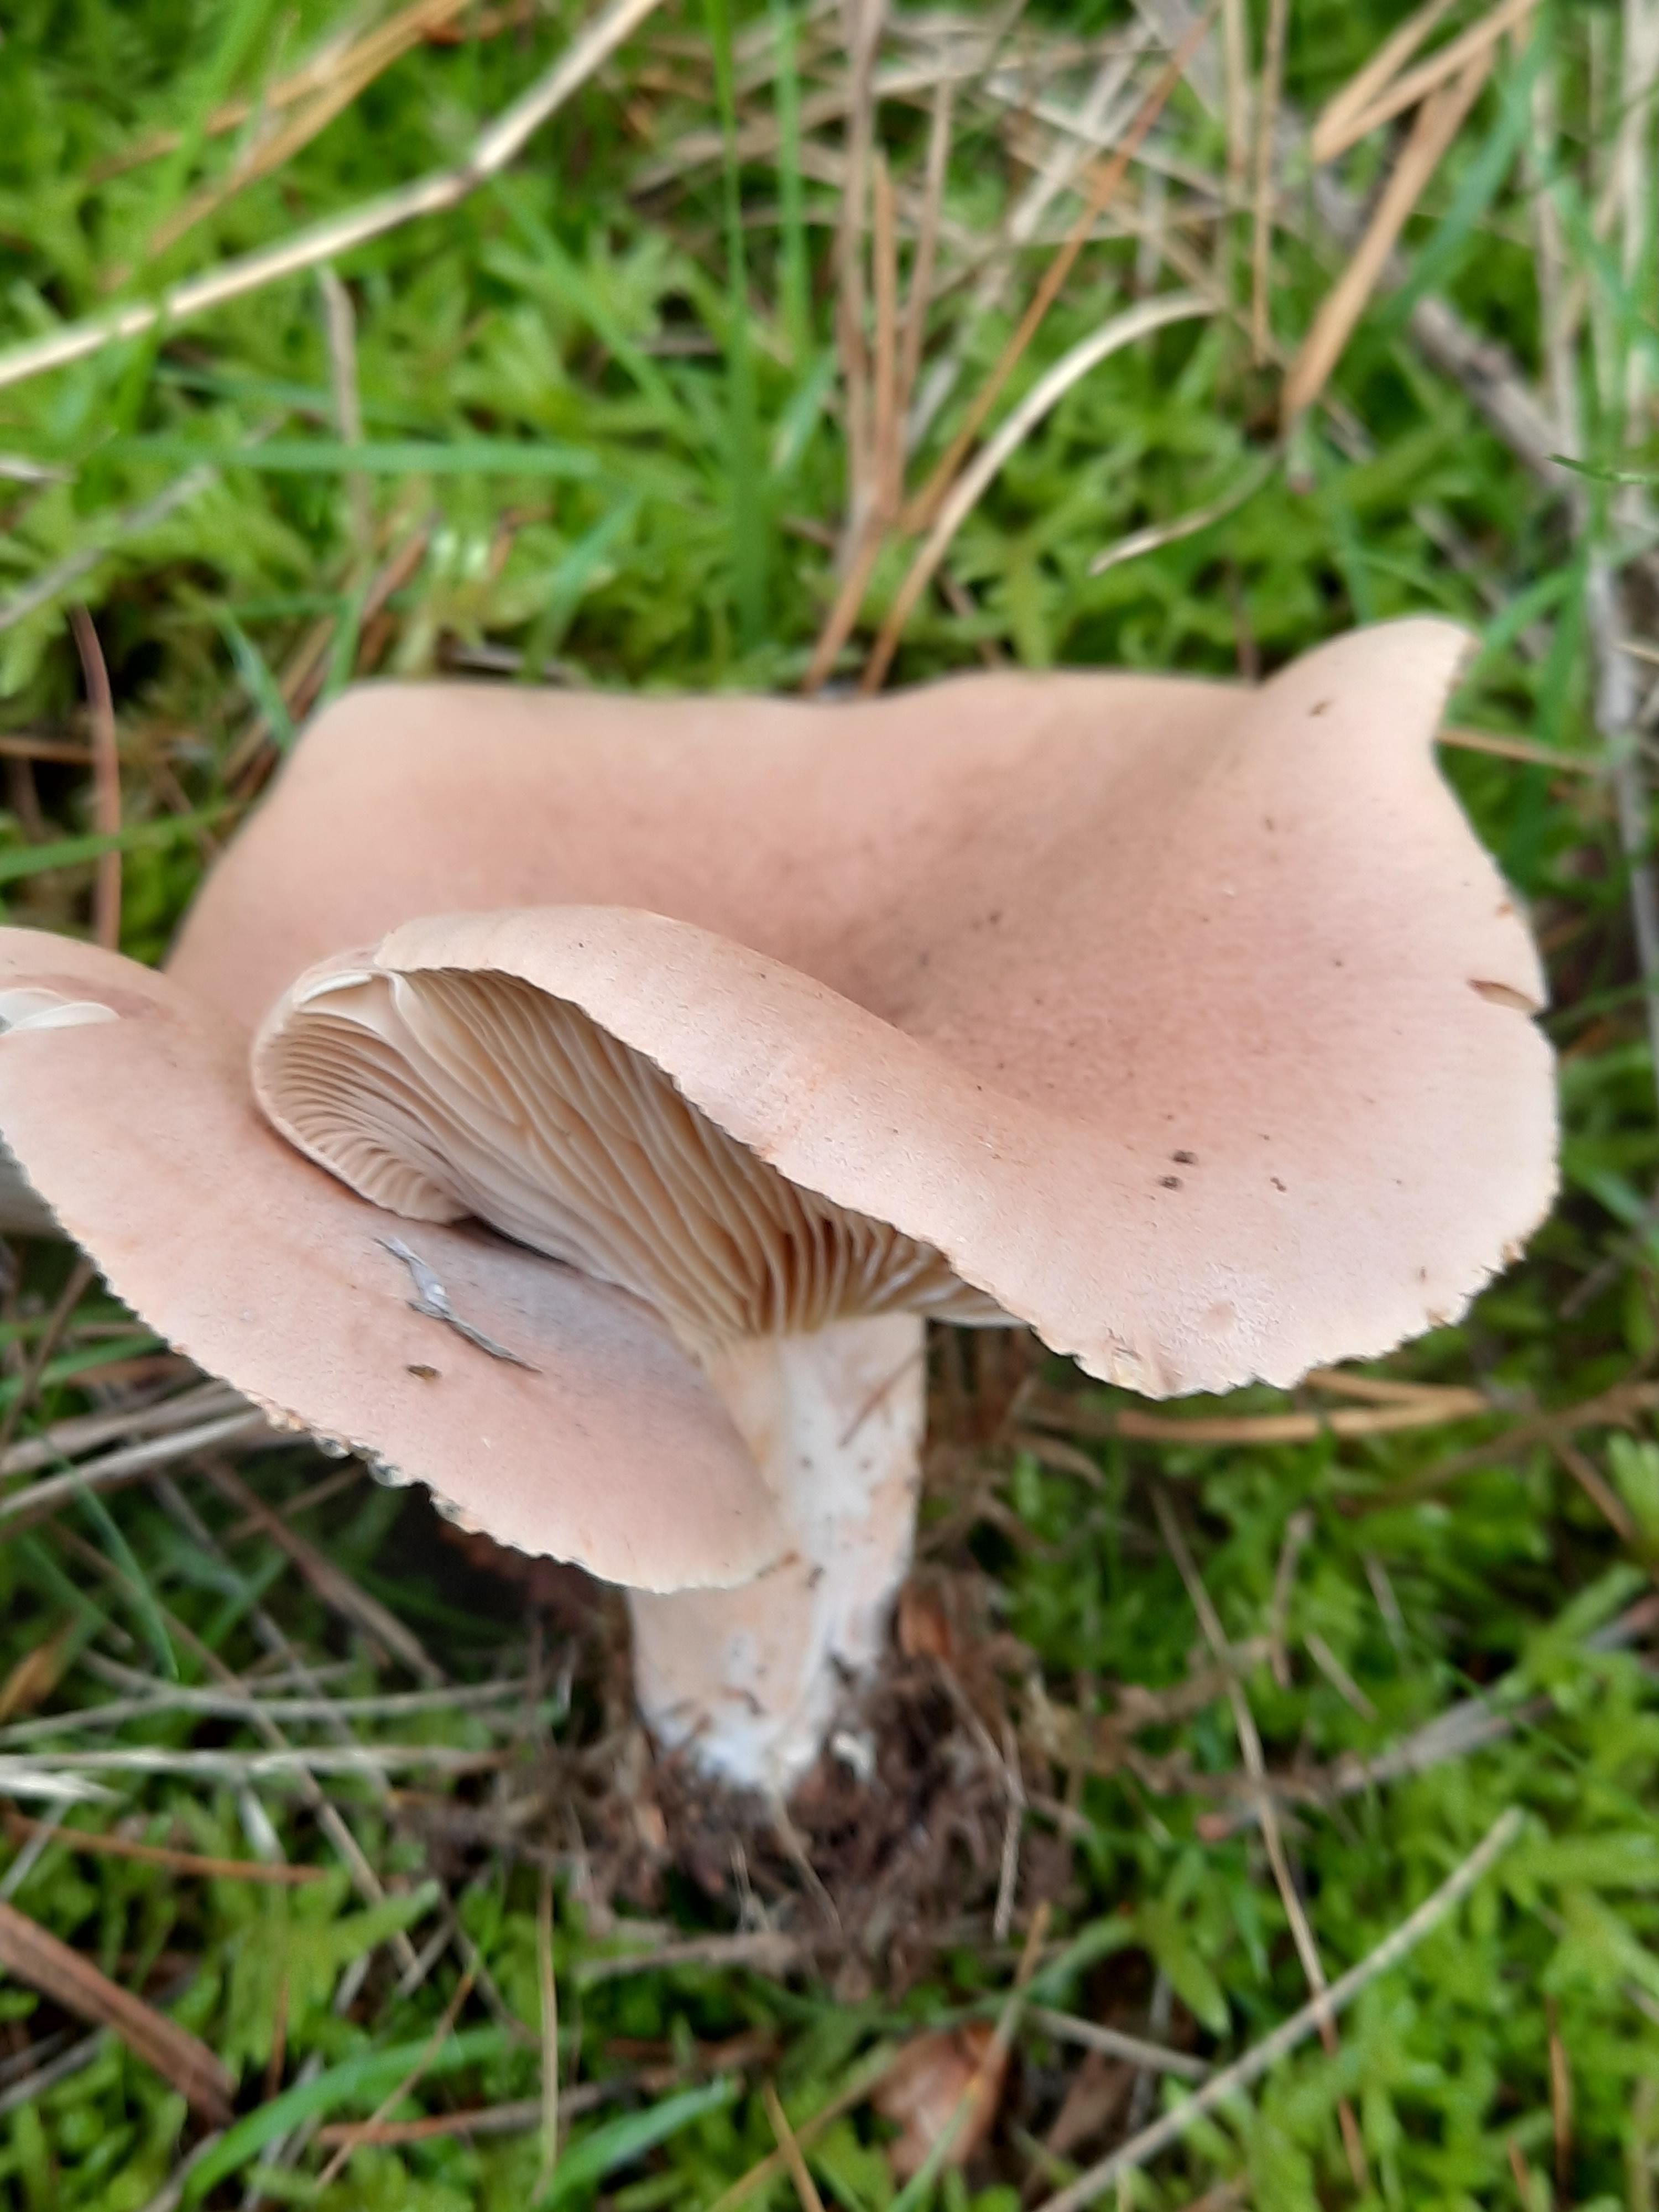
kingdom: Fungi
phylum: Basidiomycota
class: Agaricomycetes
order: Russulales
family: Russulaceae
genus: Lactarius
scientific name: Lactarius helvus
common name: mose-mælkehat
